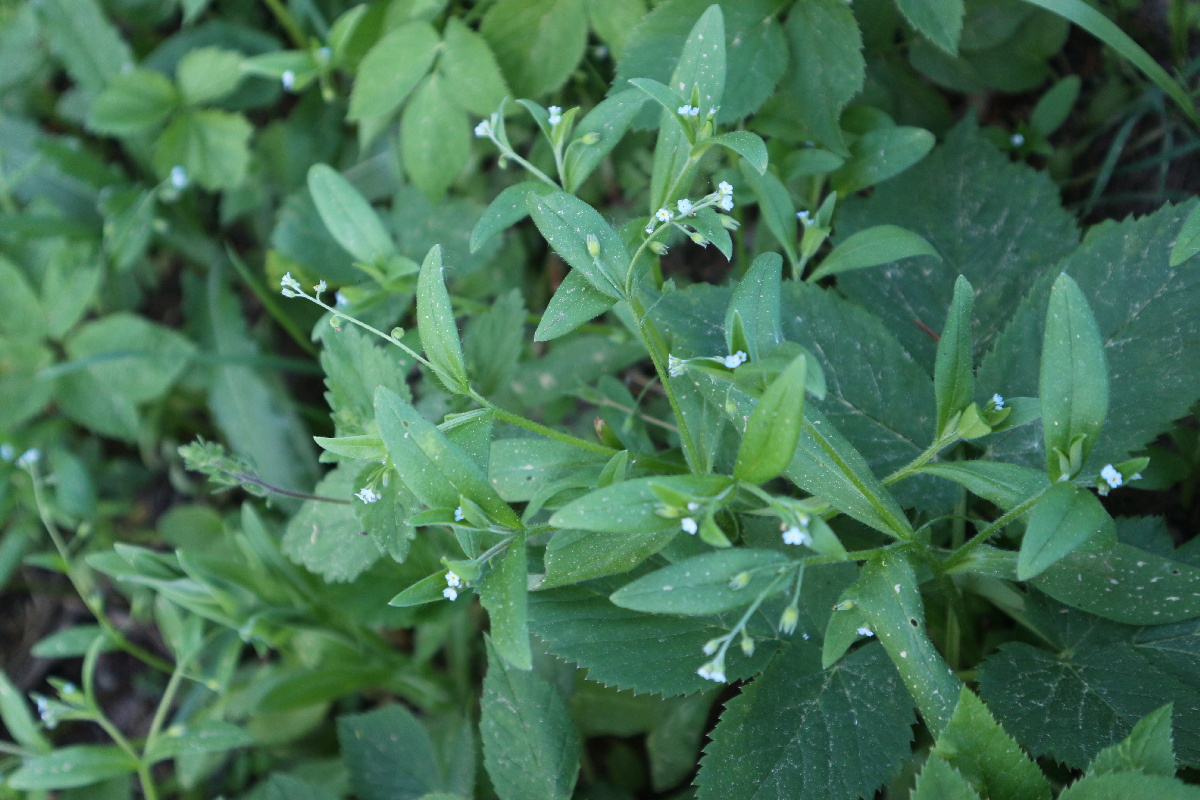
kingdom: Plantae
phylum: Tracheophyta
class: Magnoliopsida
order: Boraginales
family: Boraginaceae
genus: Myosotis
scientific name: Myosotis sparsiflora
